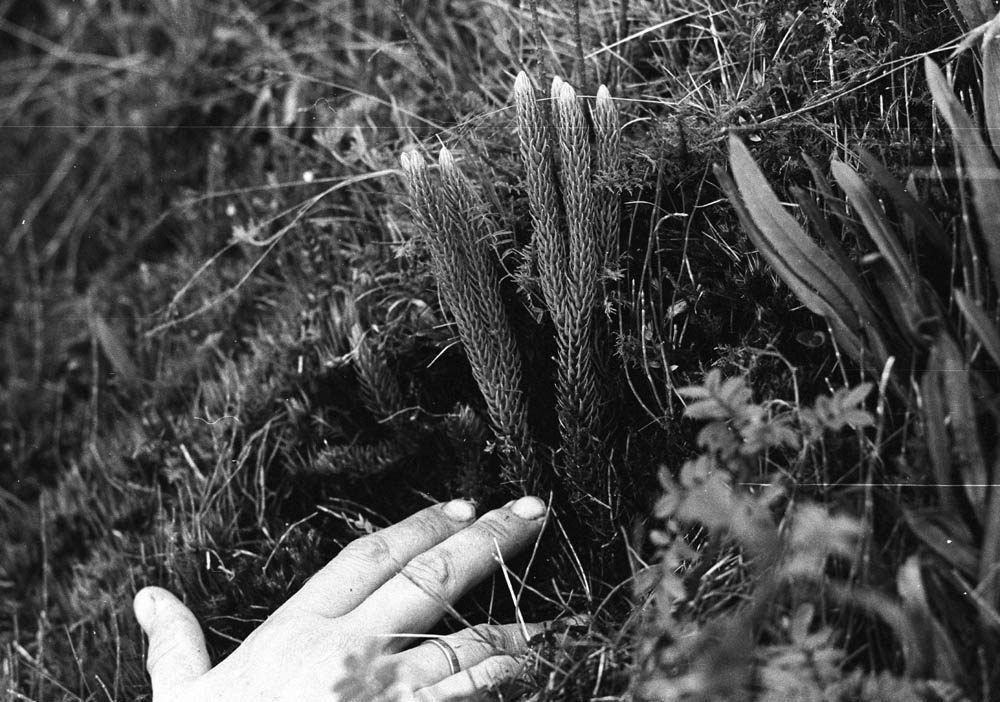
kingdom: Plantae
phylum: Tracheophyta
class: Lycopodiopsida
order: Lycopodiales
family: Lycopodiaceae
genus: Phlegmariurus
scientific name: Phlegmariurus cumingii
